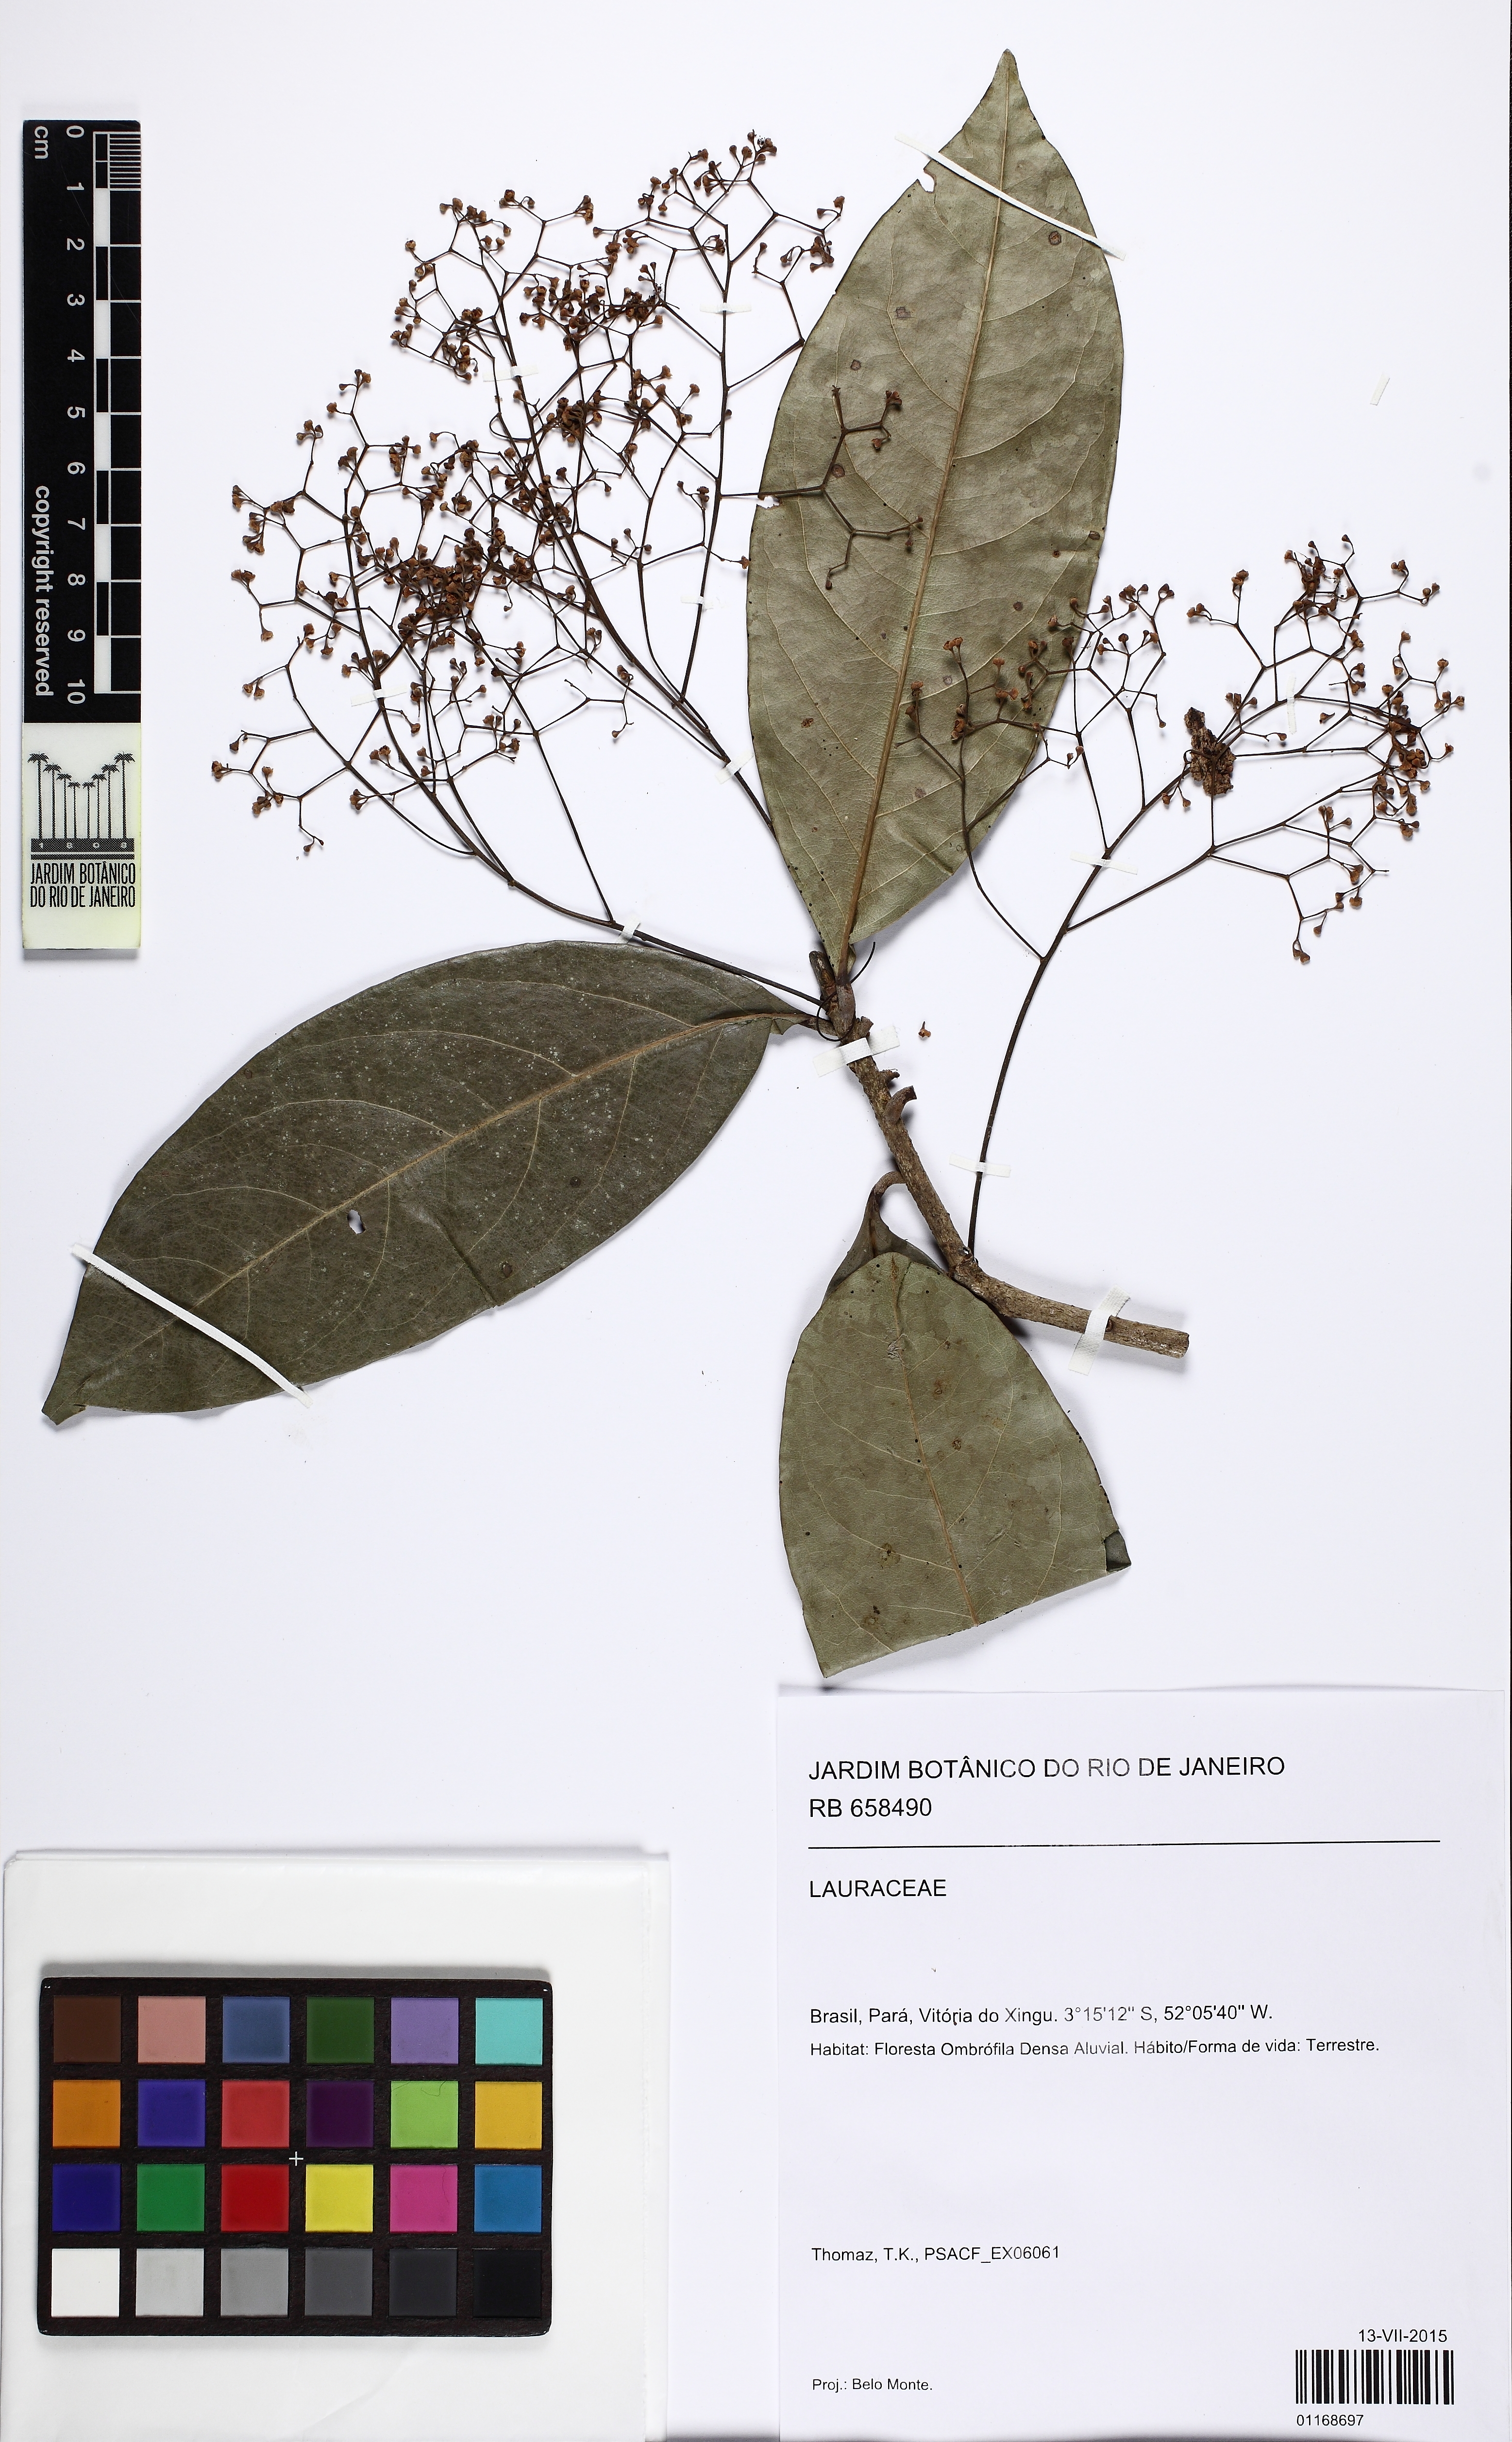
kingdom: Plantae
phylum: Tracheophyta
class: Magnoliopsida
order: Laurales
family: Lauraceae
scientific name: Lauraceae
